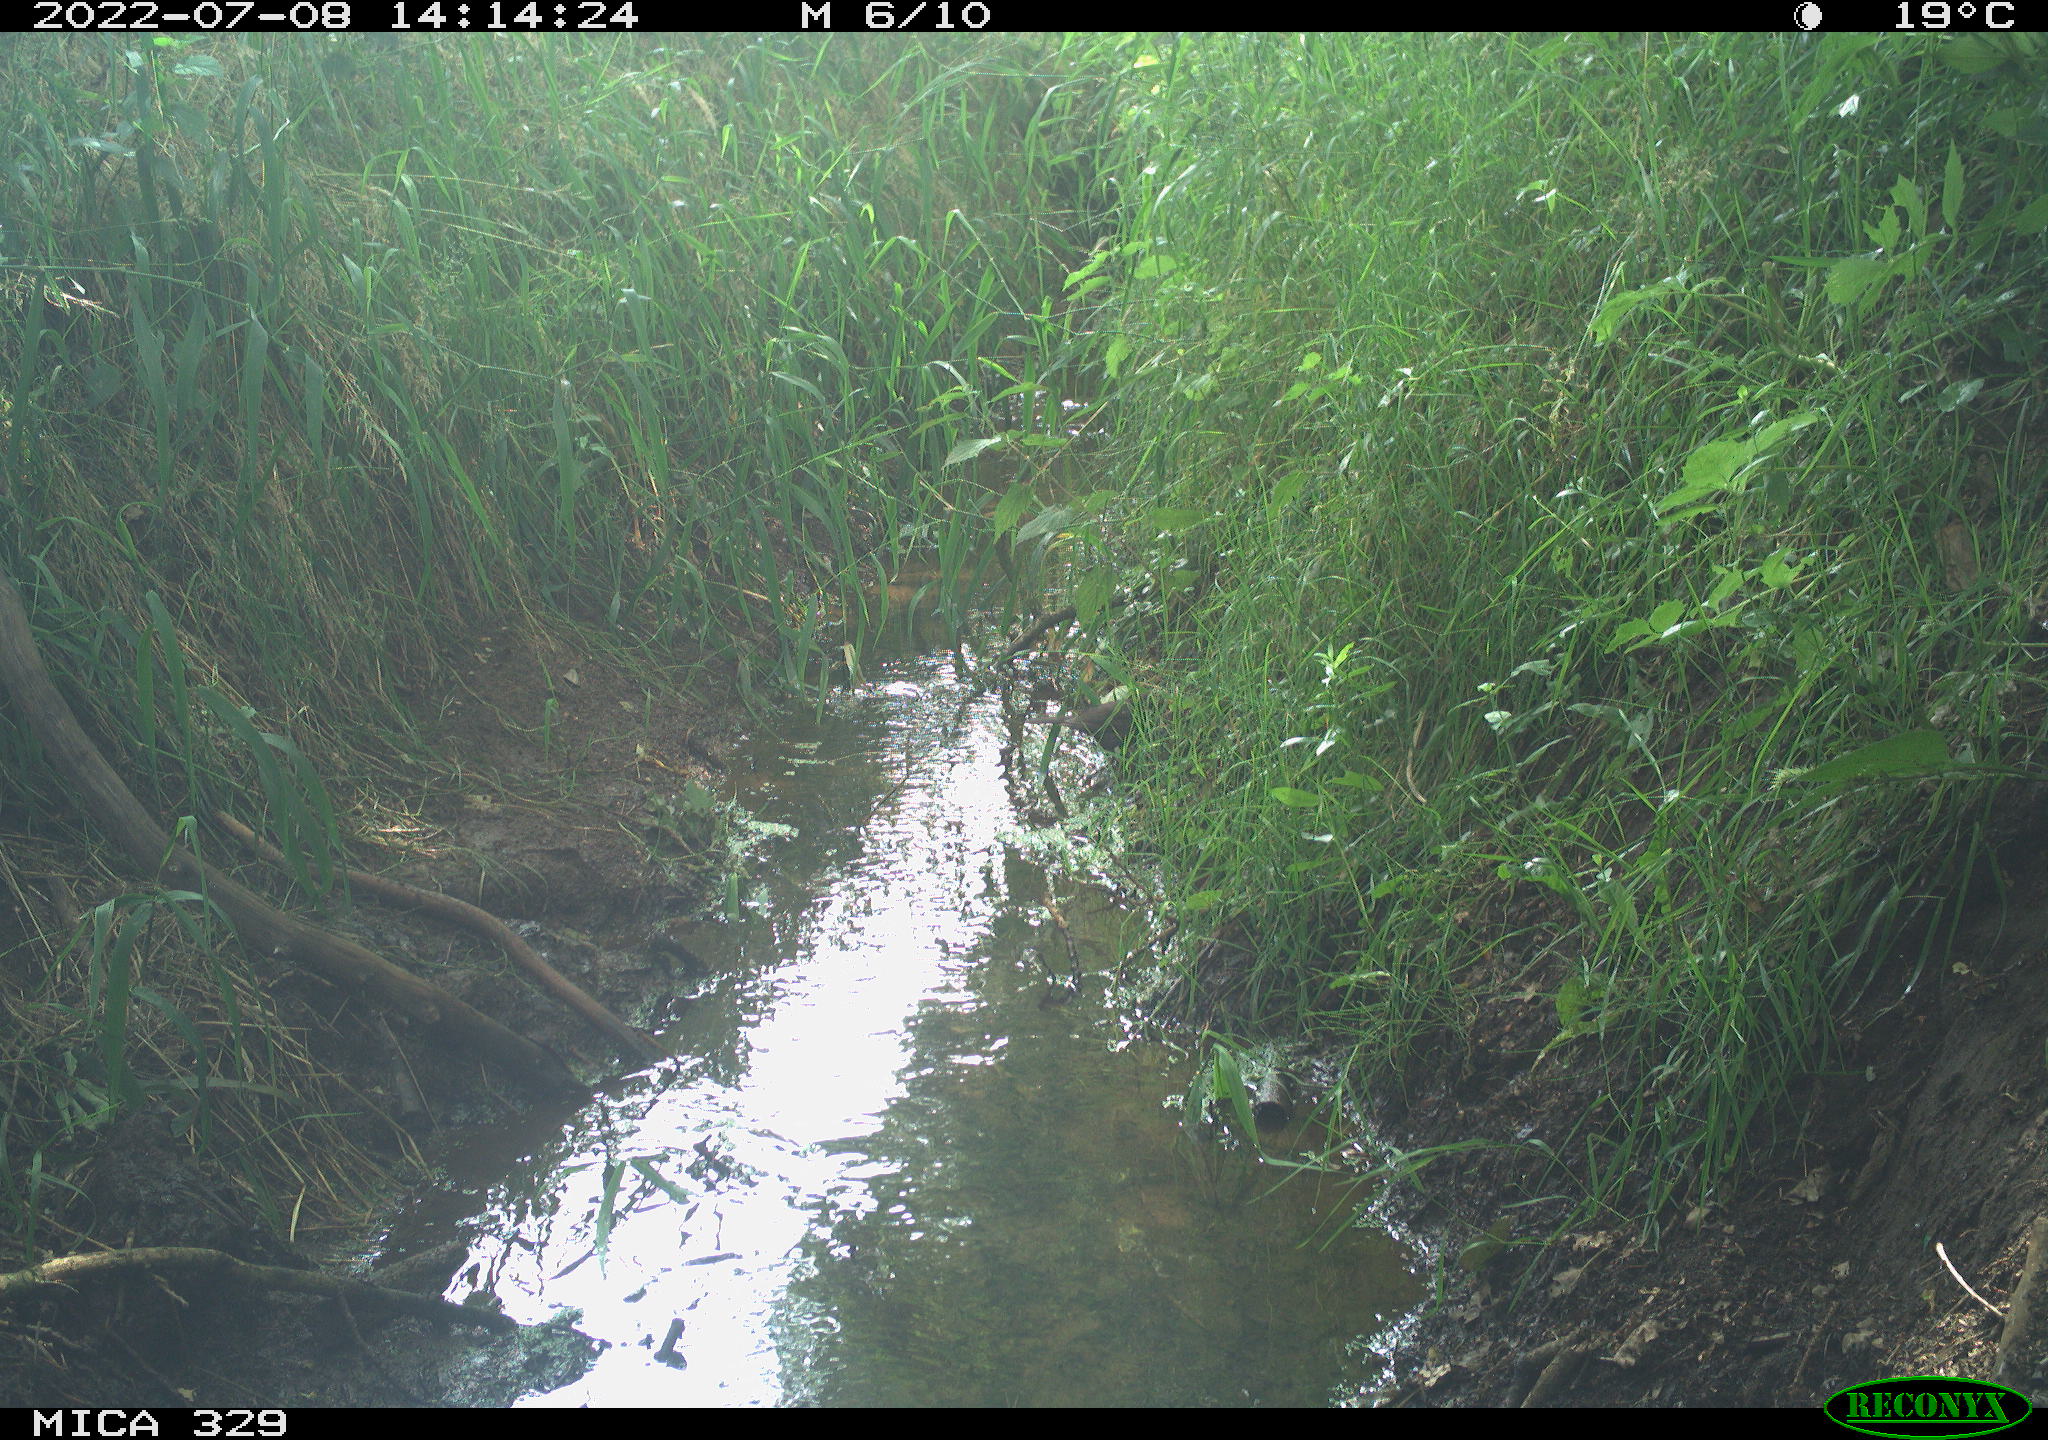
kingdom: Animalia
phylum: Chordata
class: Aves
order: Passeriformes
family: Turdidae
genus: Turdus
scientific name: Turdus merula
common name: Common blackbird
